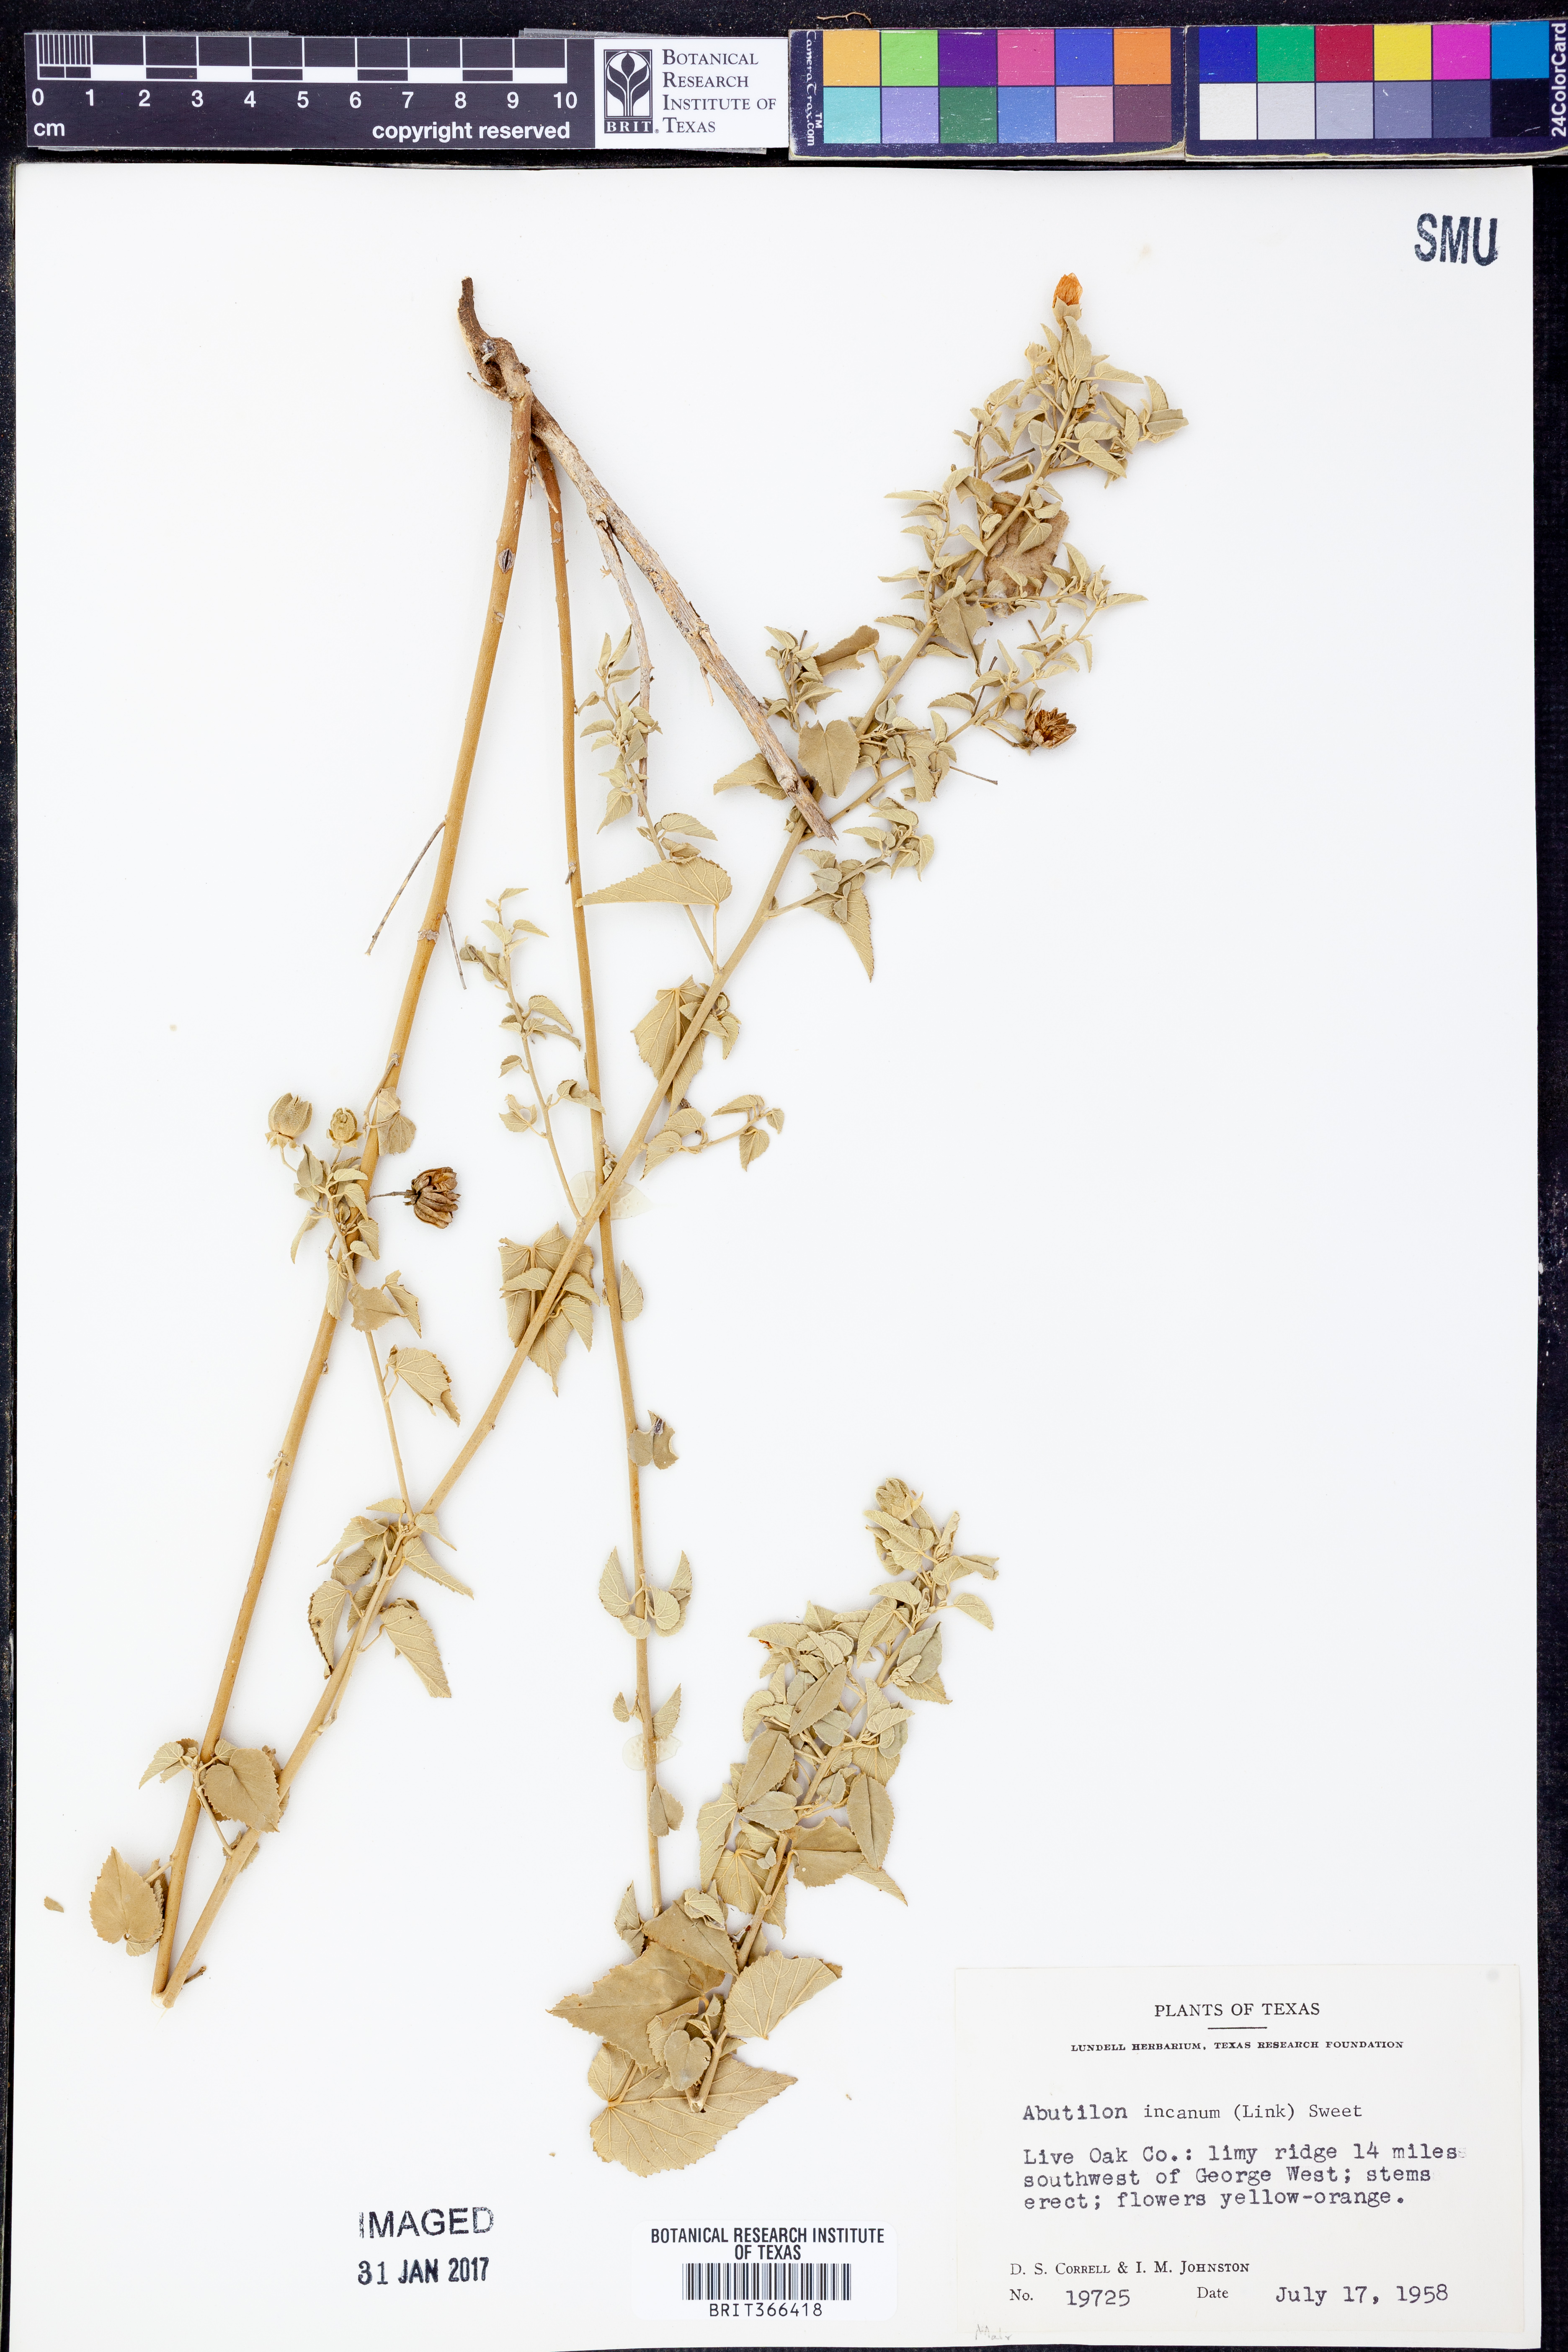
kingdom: Plantae
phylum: Tracheophyta
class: Magnoliopsida
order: Malvales
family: Malvaceae
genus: Abutilon
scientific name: Abutilon incanum
